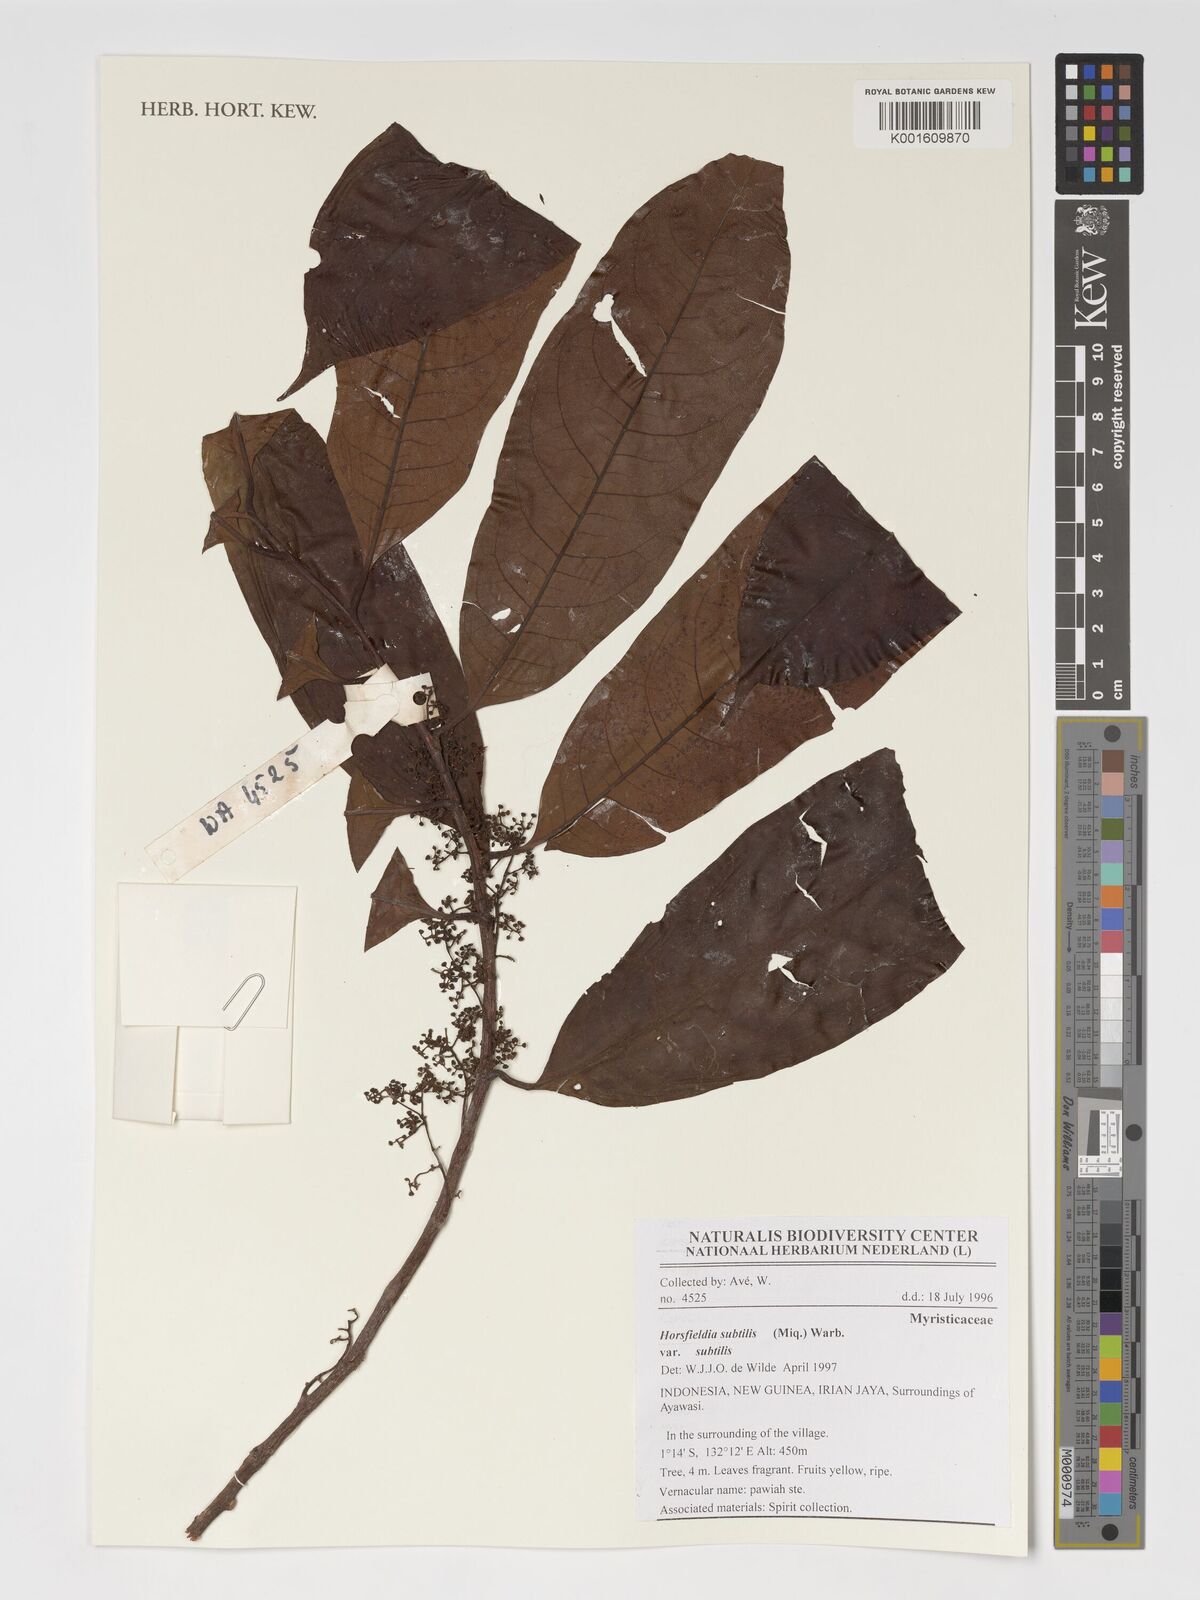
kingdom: Plantae
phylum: Tracheophyta
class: Magnoliopsida
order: Magnoliales
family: Myristicaceae
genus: Horsfieldia
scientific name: Horsfieldia subtilis
